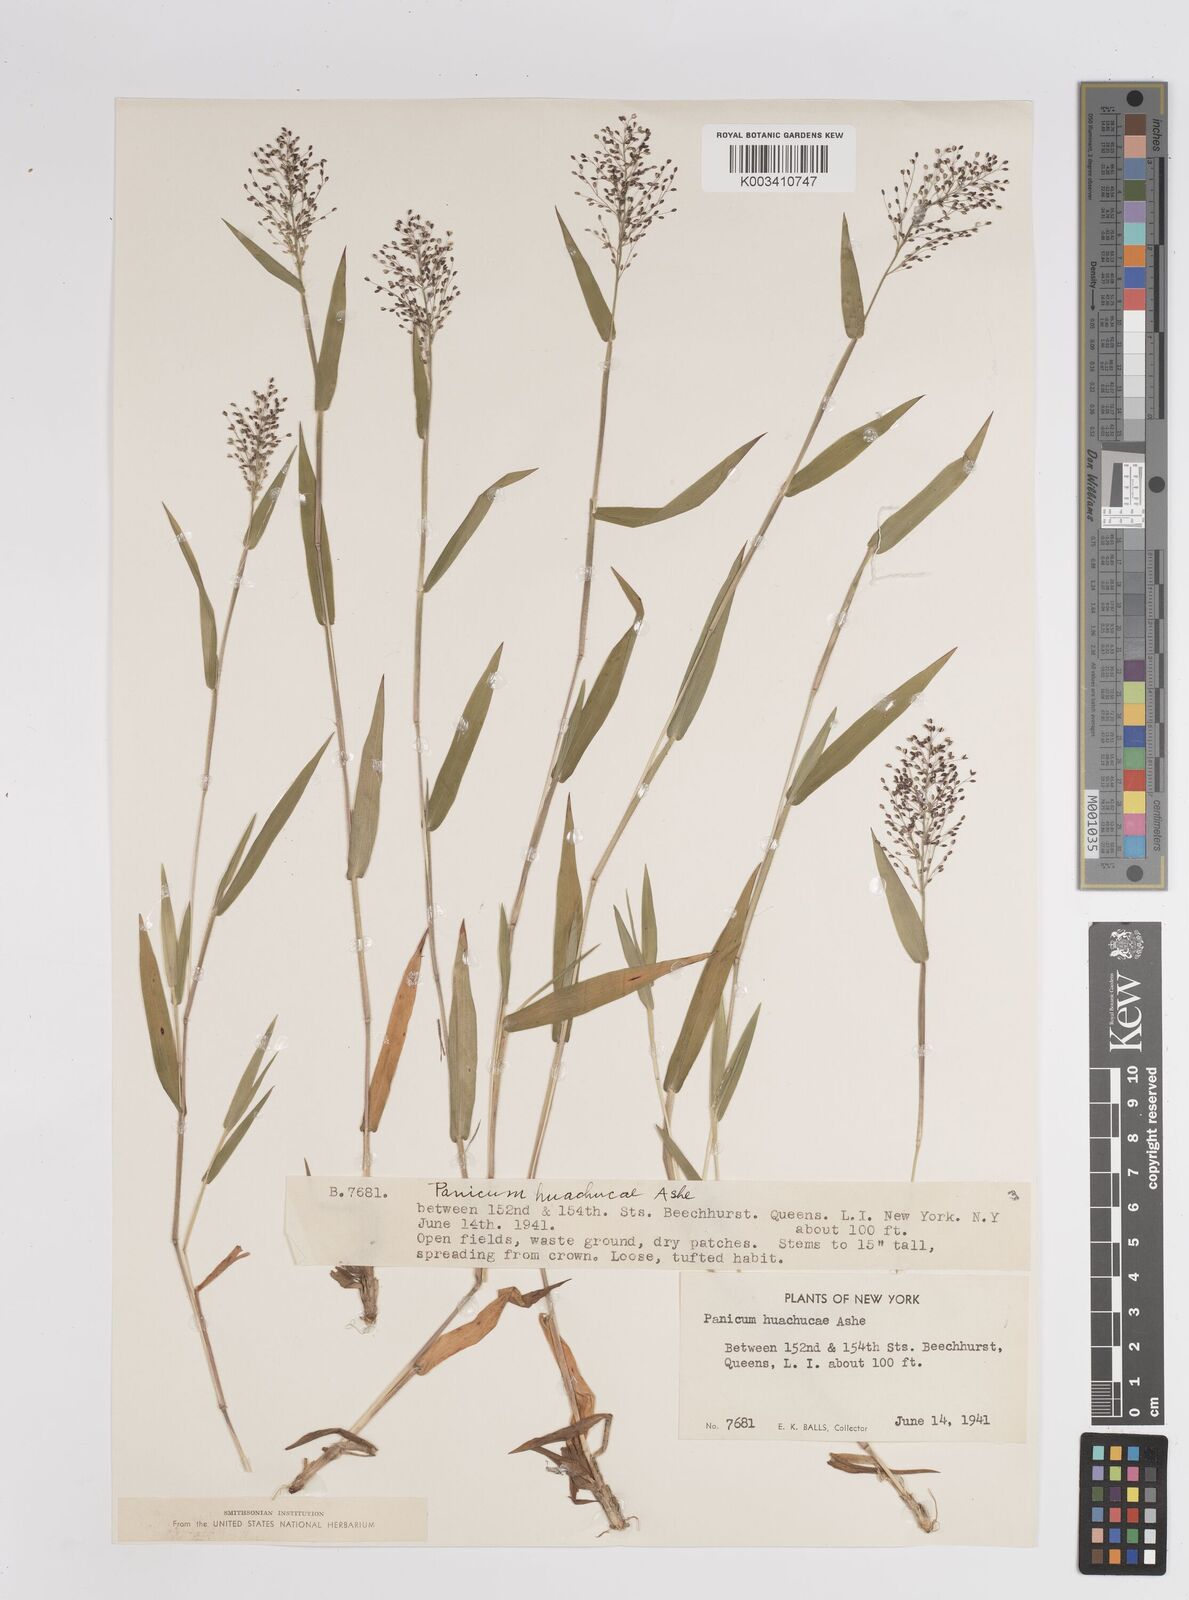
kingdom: Plantae
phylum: Tracheophyta
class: Liliopsida
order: Poales
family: Poaceae
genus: Dichanthelium
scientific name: Dichanthelium acuminatum
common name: Hairy panic grass
